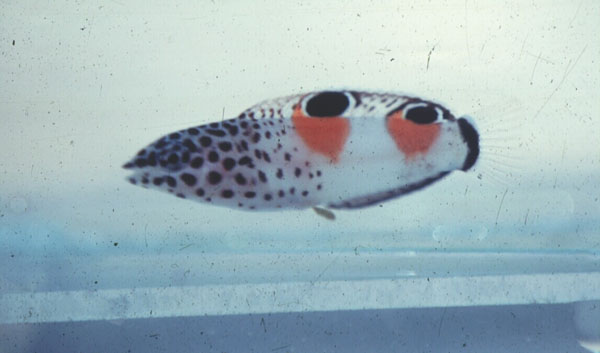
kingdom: Animalia
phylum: Chordata
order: Perciformes
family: Labridae
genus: Coris
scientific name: Coris aygula
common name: Clown coris
